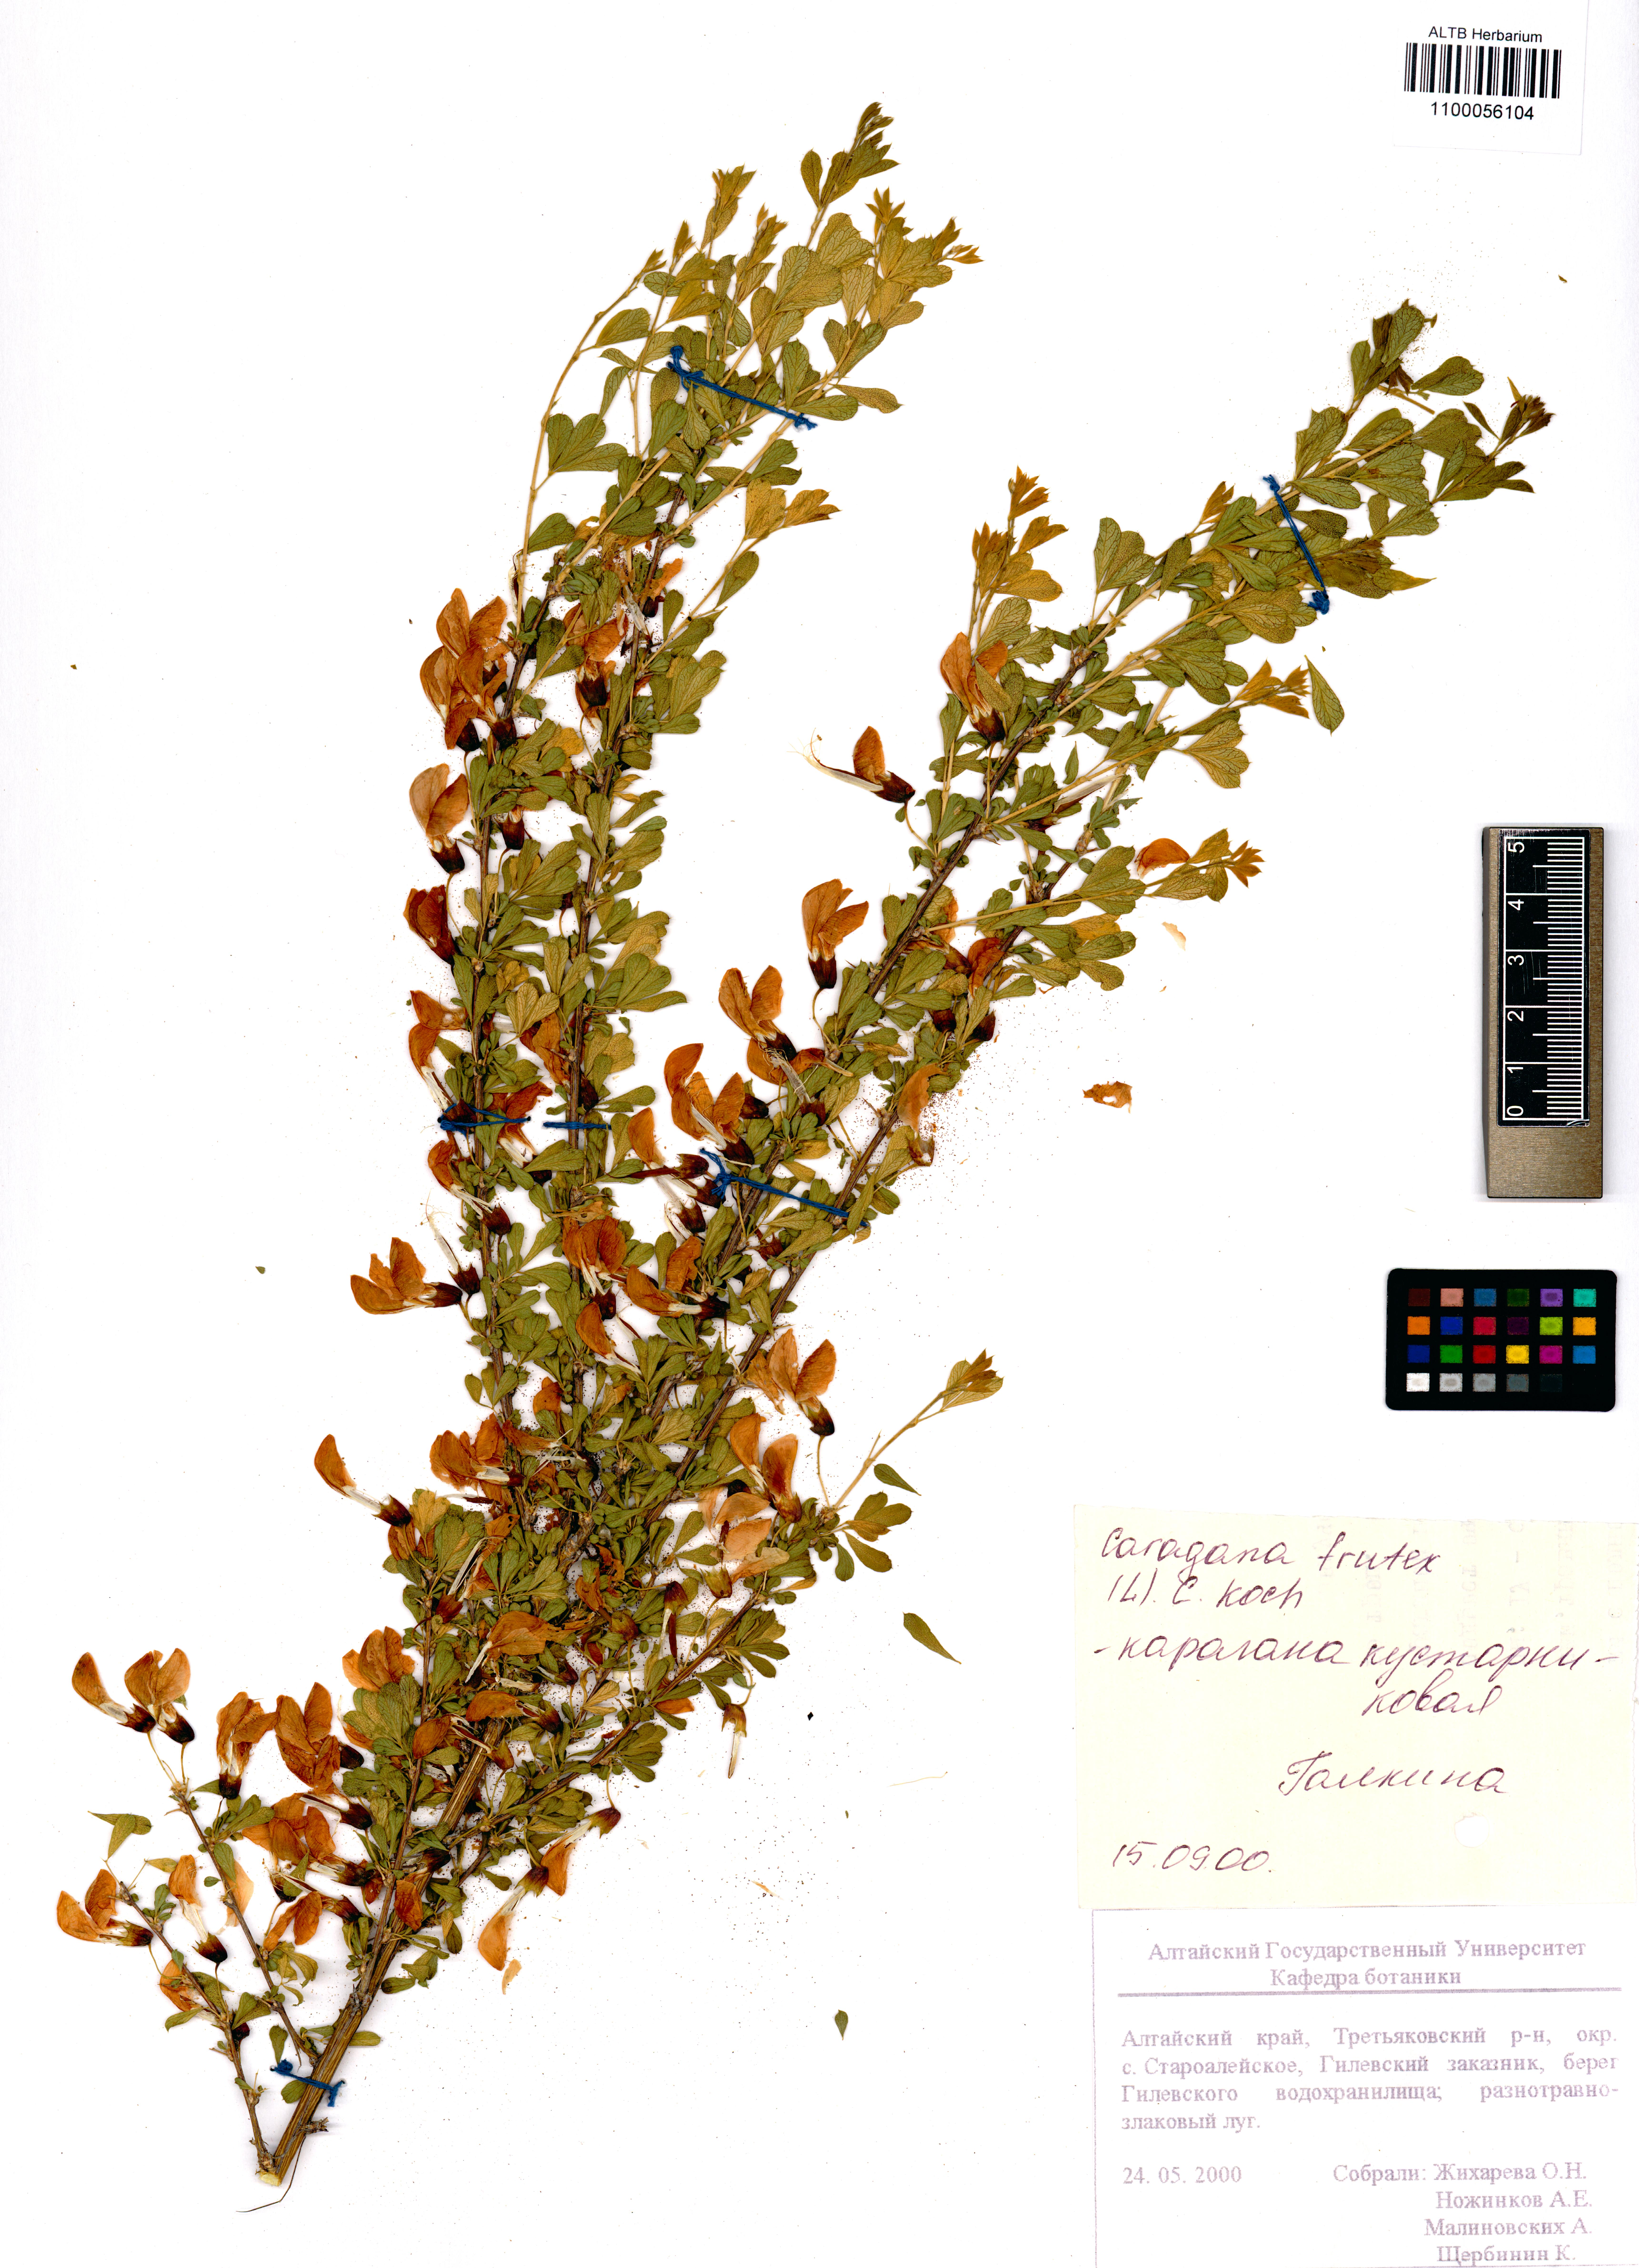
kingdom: Plantae
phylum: Tracheophyta
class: Magnoliopsida
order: Fabales
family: Fabaceae
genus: Caragana
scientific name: Caragana frutex
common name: Russian peashrub
